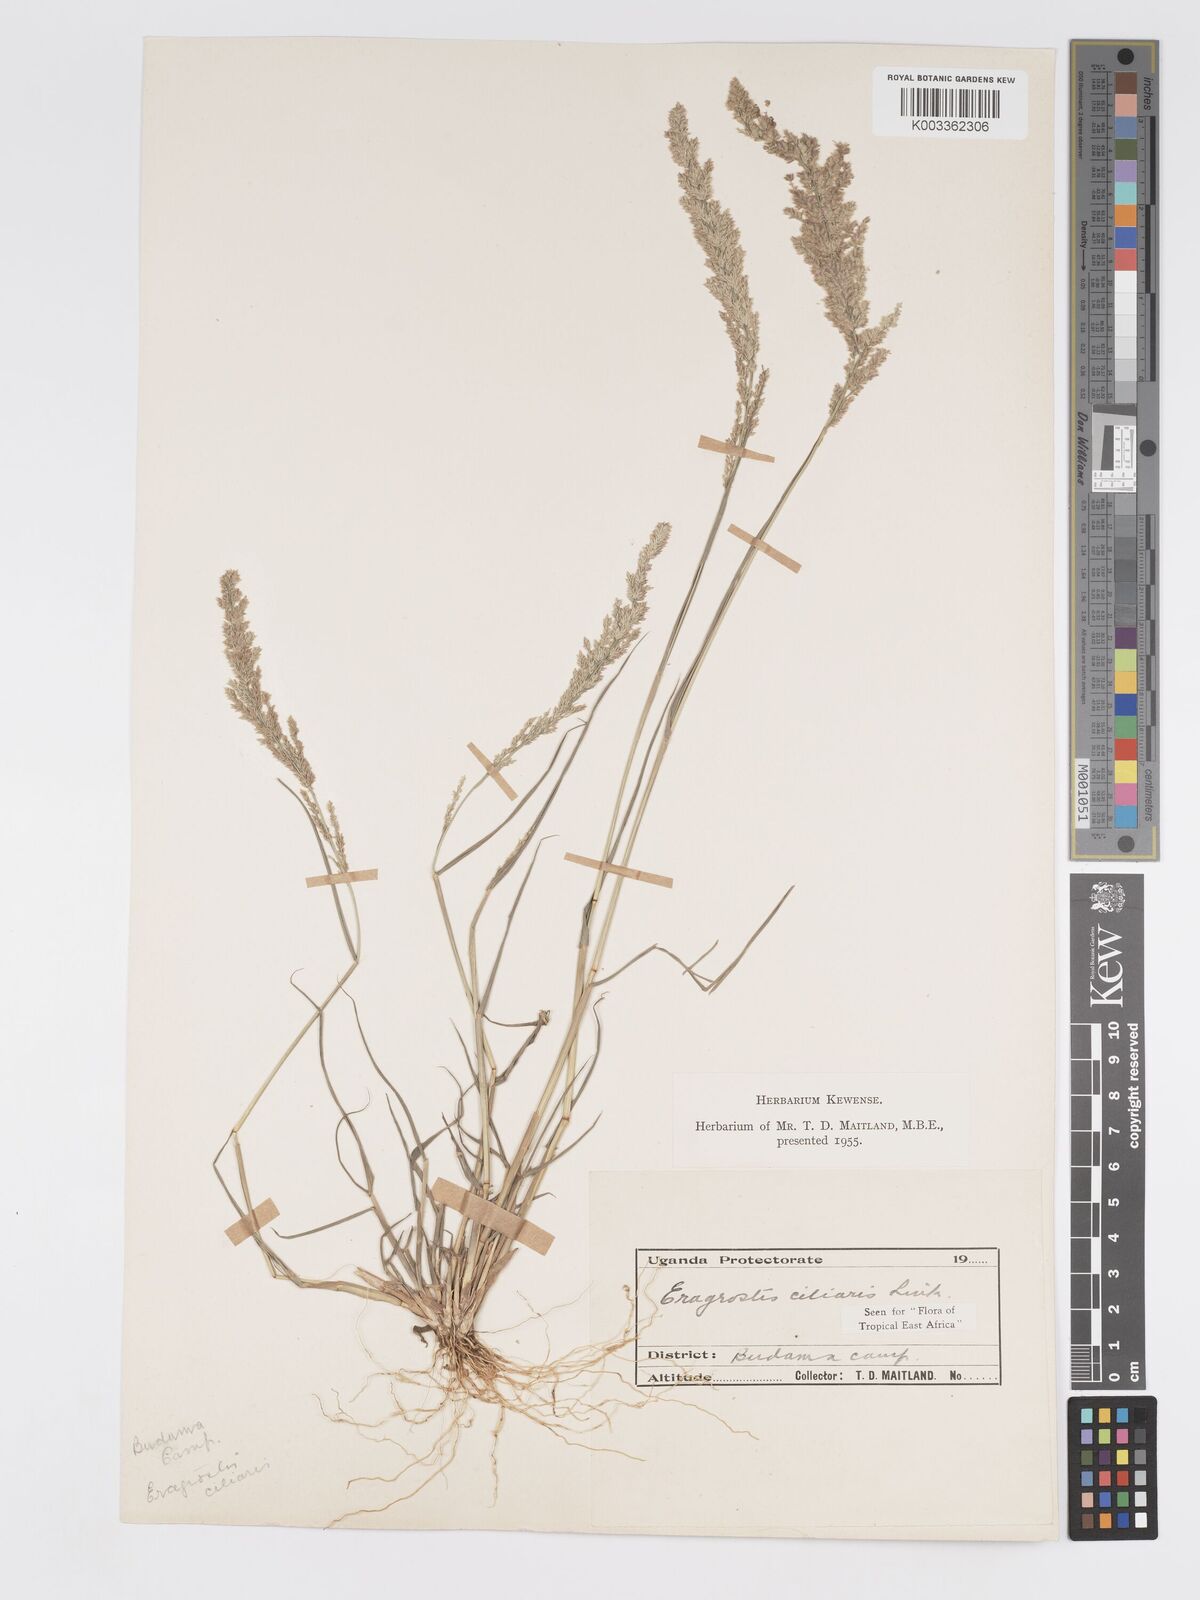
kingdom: Plantae
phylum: Tracheophyta
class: Liliopsida
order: Poales
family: Poaceae
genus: Eragrostis
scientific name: Eragrostis ciliaris
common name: Gophertail lovegrass
